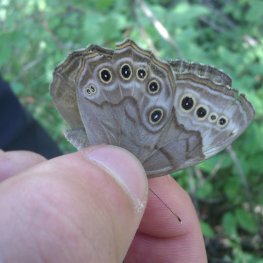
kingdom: Animalia
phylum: Arthropoda
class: Insecta
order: Lepidoptera
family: Nymphalidae
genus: Lethe
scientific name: Lethe anthedon
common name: Northern Pearly-Eye
